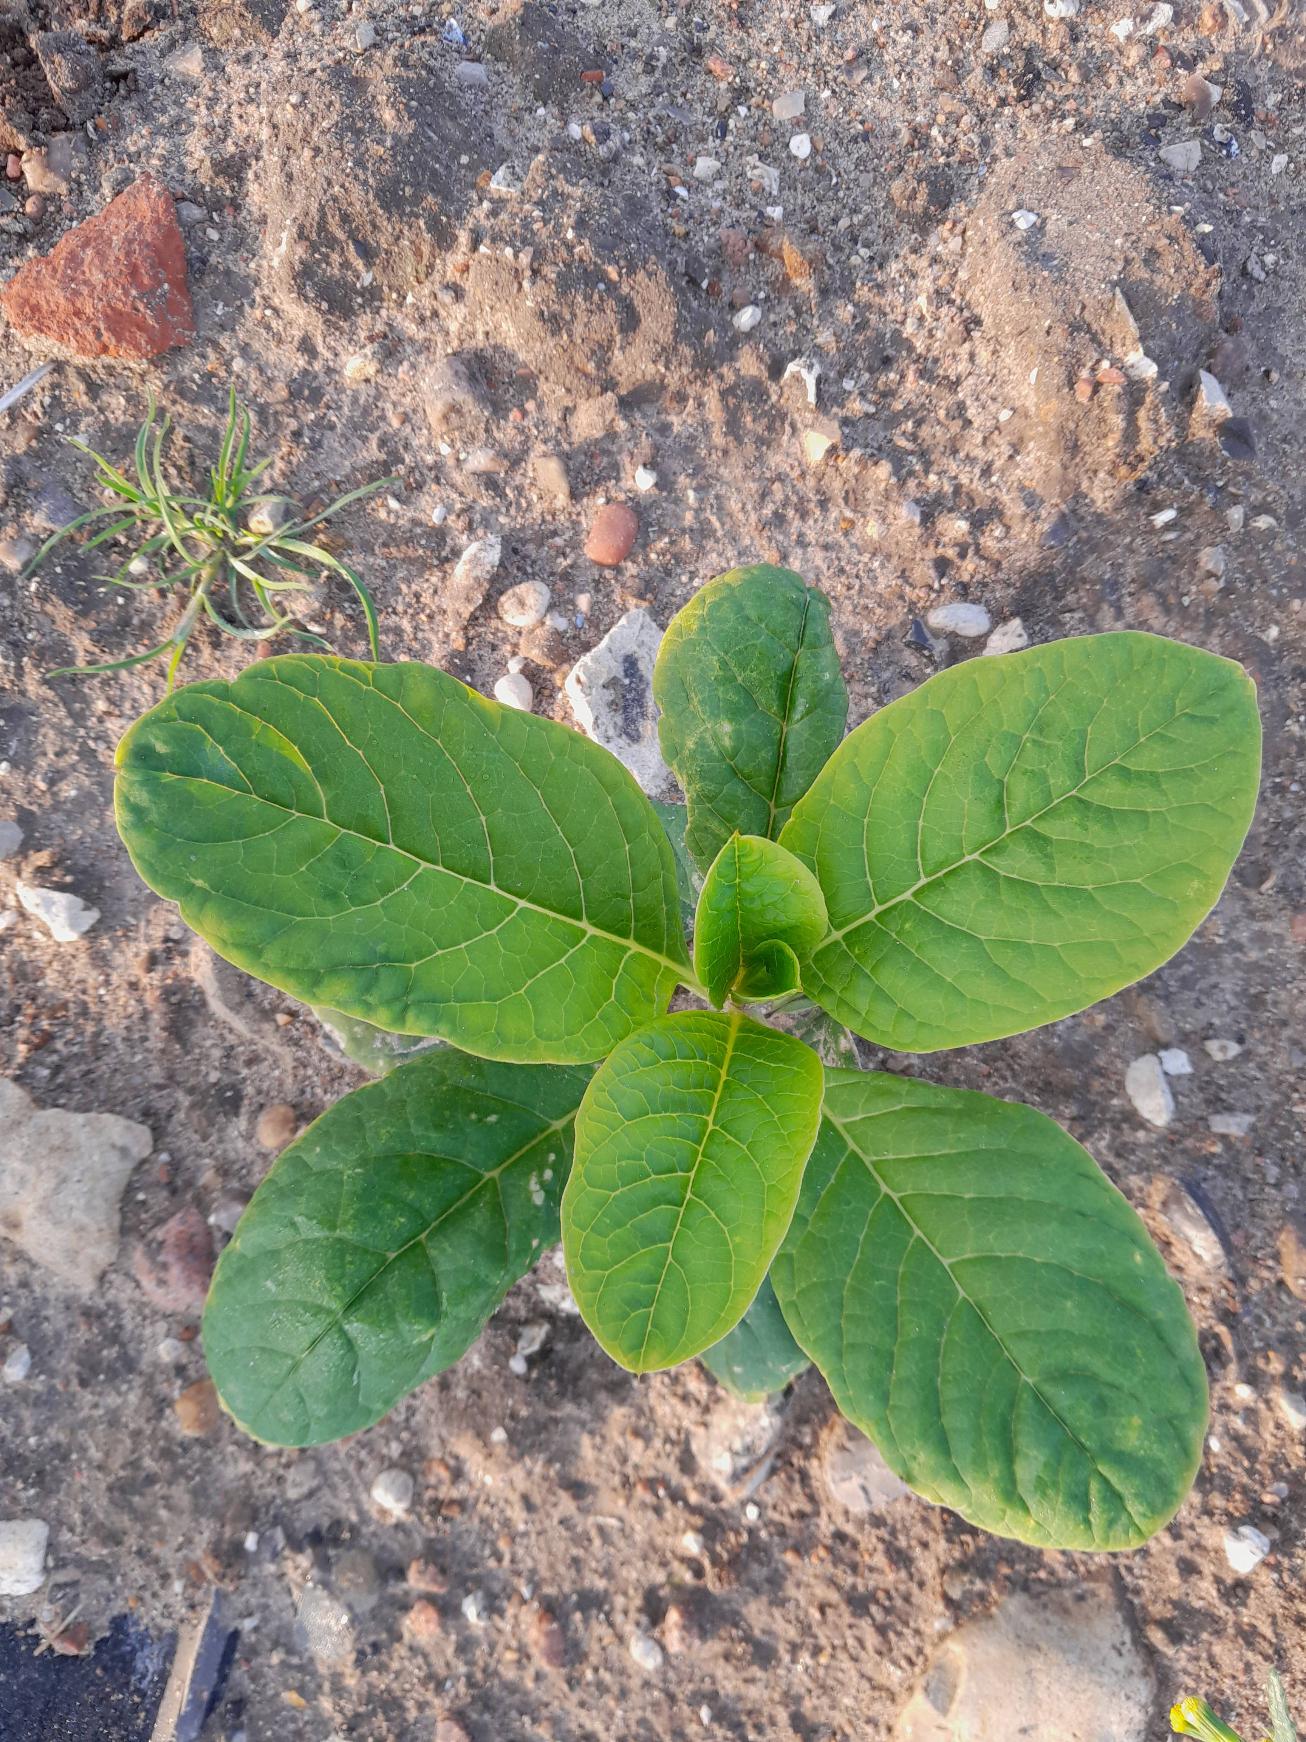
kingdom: Plantae
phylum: Tracheophyta
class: Magnoliopsida
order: Caryophyllales
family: Phytolaccaceae
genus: Phytolacca
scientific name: Phytolacca acinosa
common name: Asiatisk kermesbær
